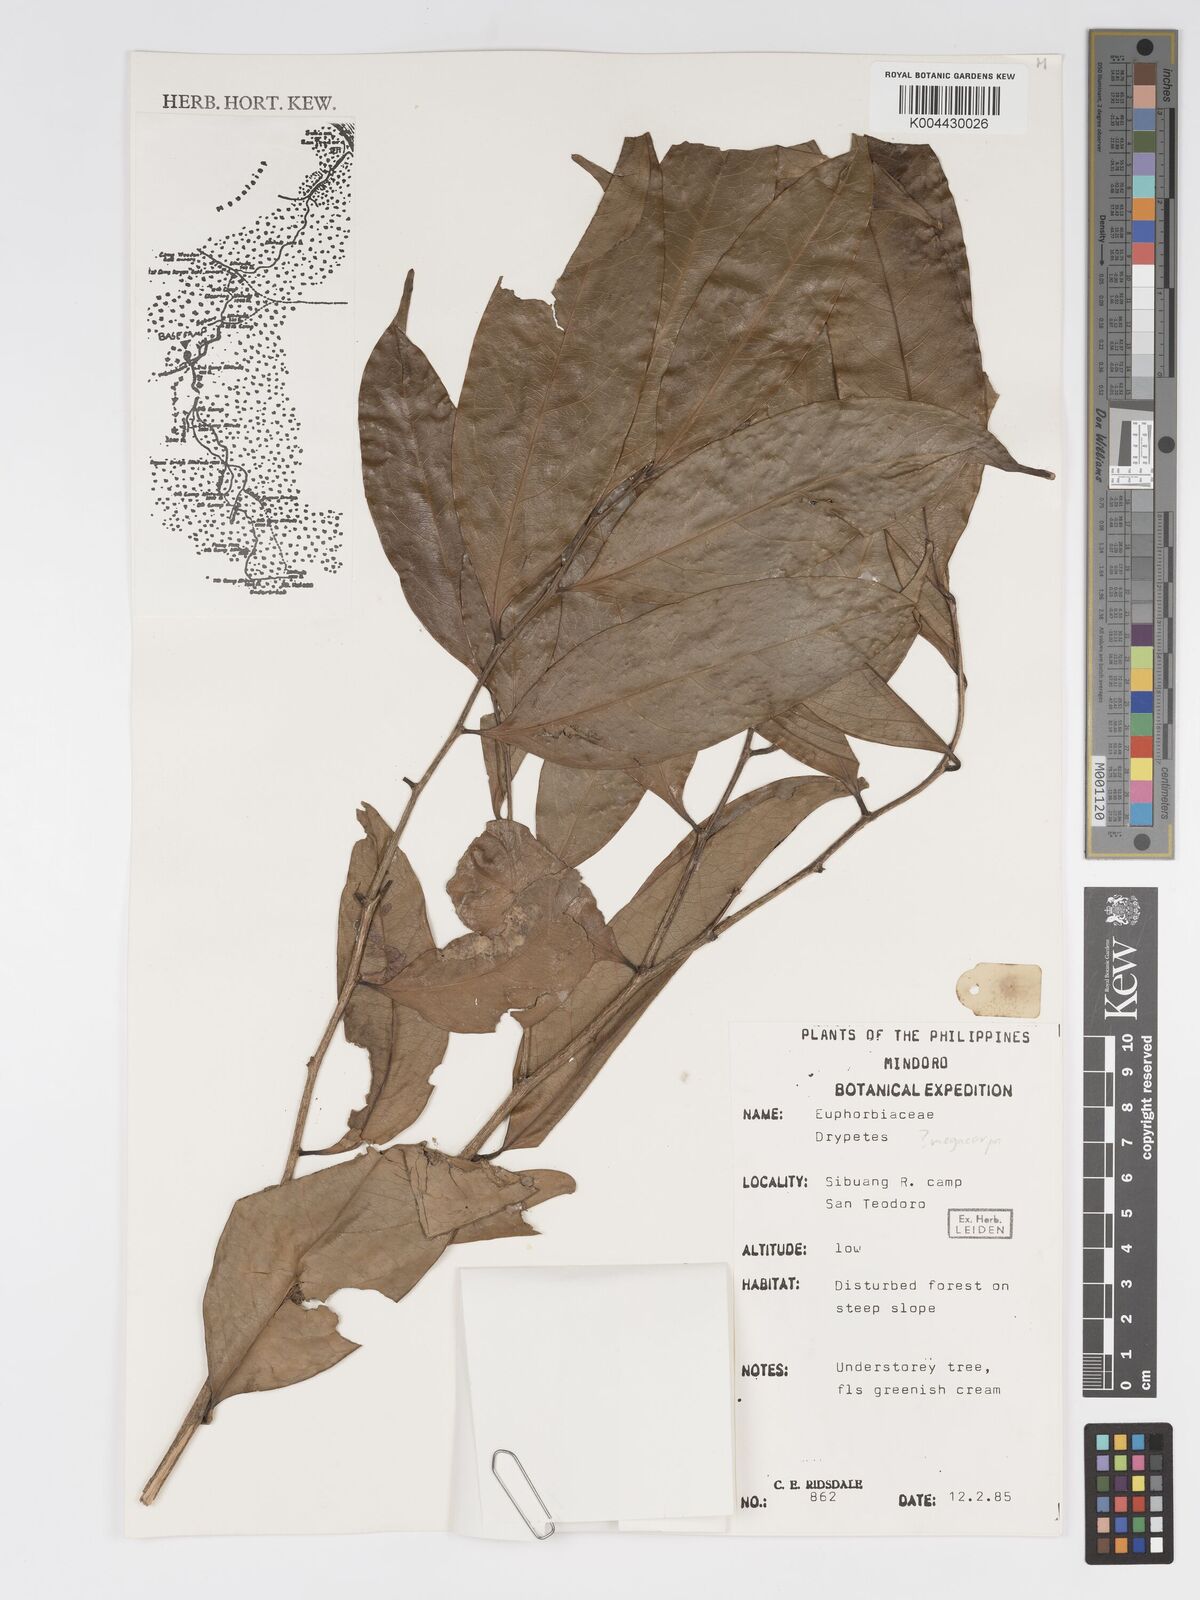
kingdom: Plantae
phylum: Tracheophyta
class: Magnoliopsida
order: Malpighiales
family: Putranjivaceae
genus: Drypetes
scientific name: Drypetes grandifolia
